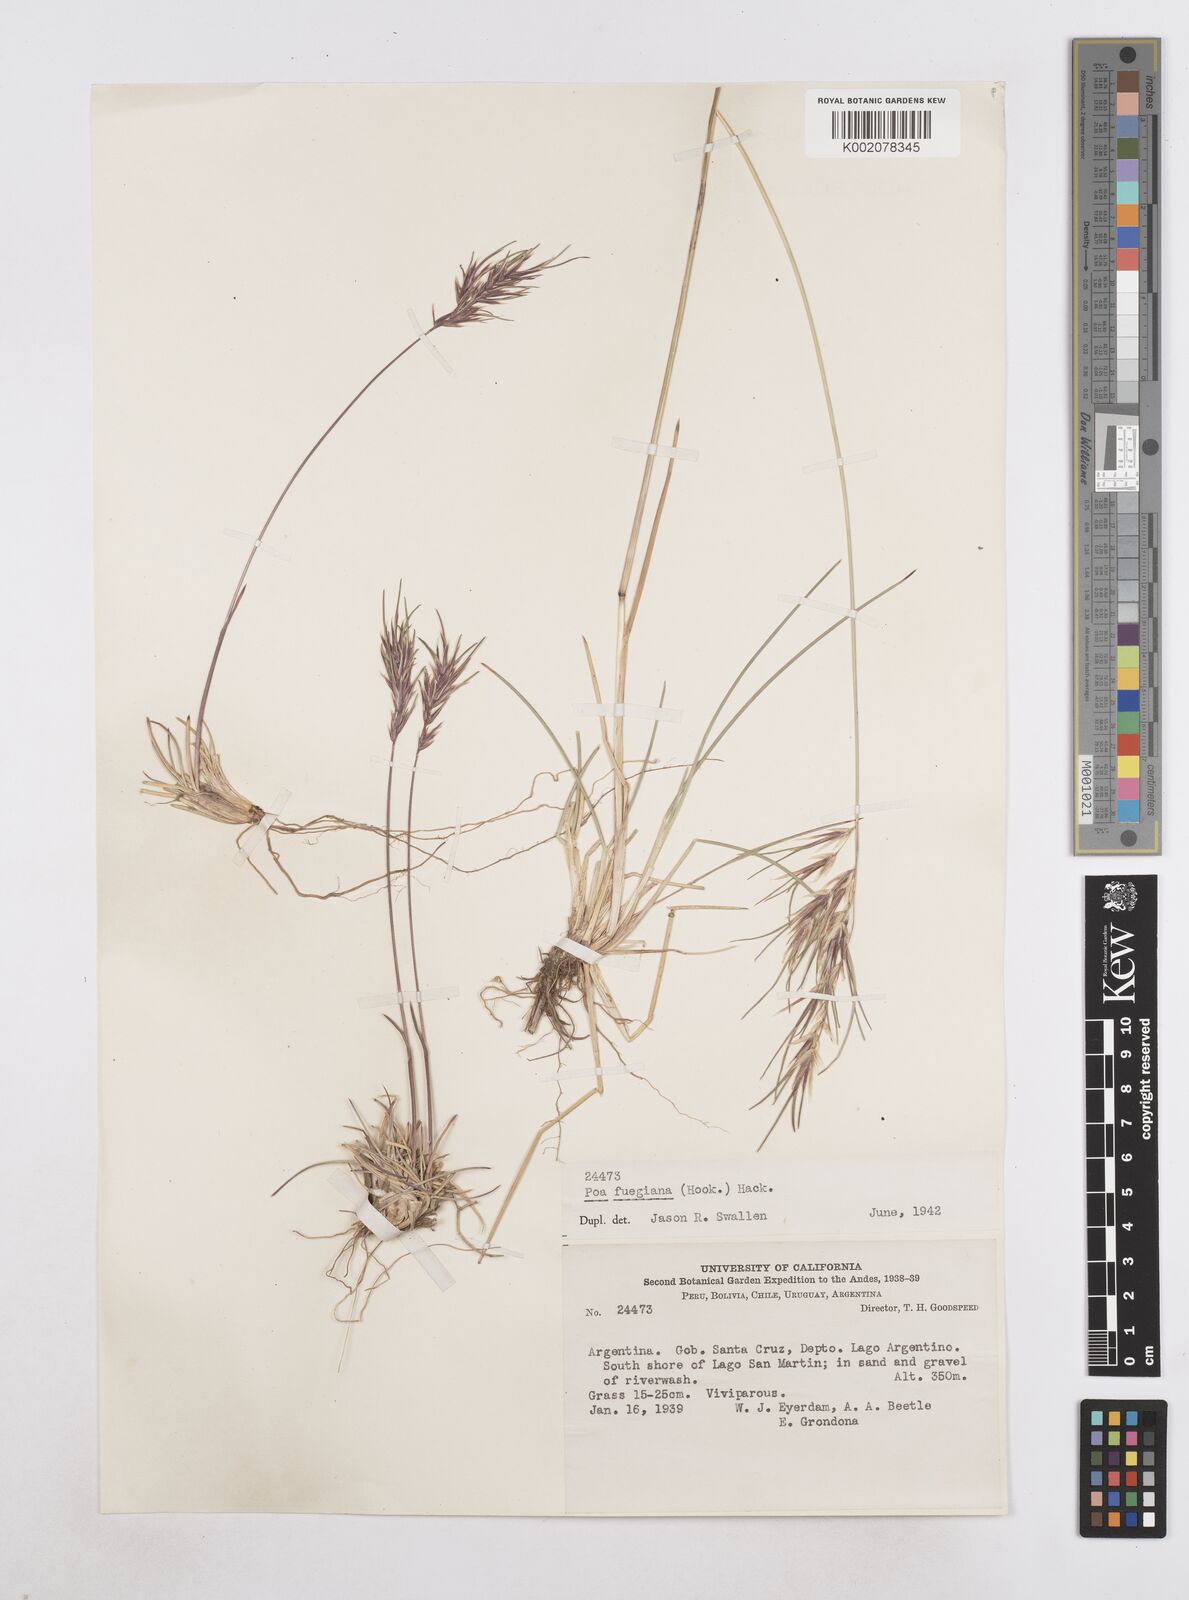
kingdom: Plantae
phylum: Tracheophyta
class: Liliopsida
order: Poales
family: Poaceae
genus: Poa
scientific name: Poa alopecurus
